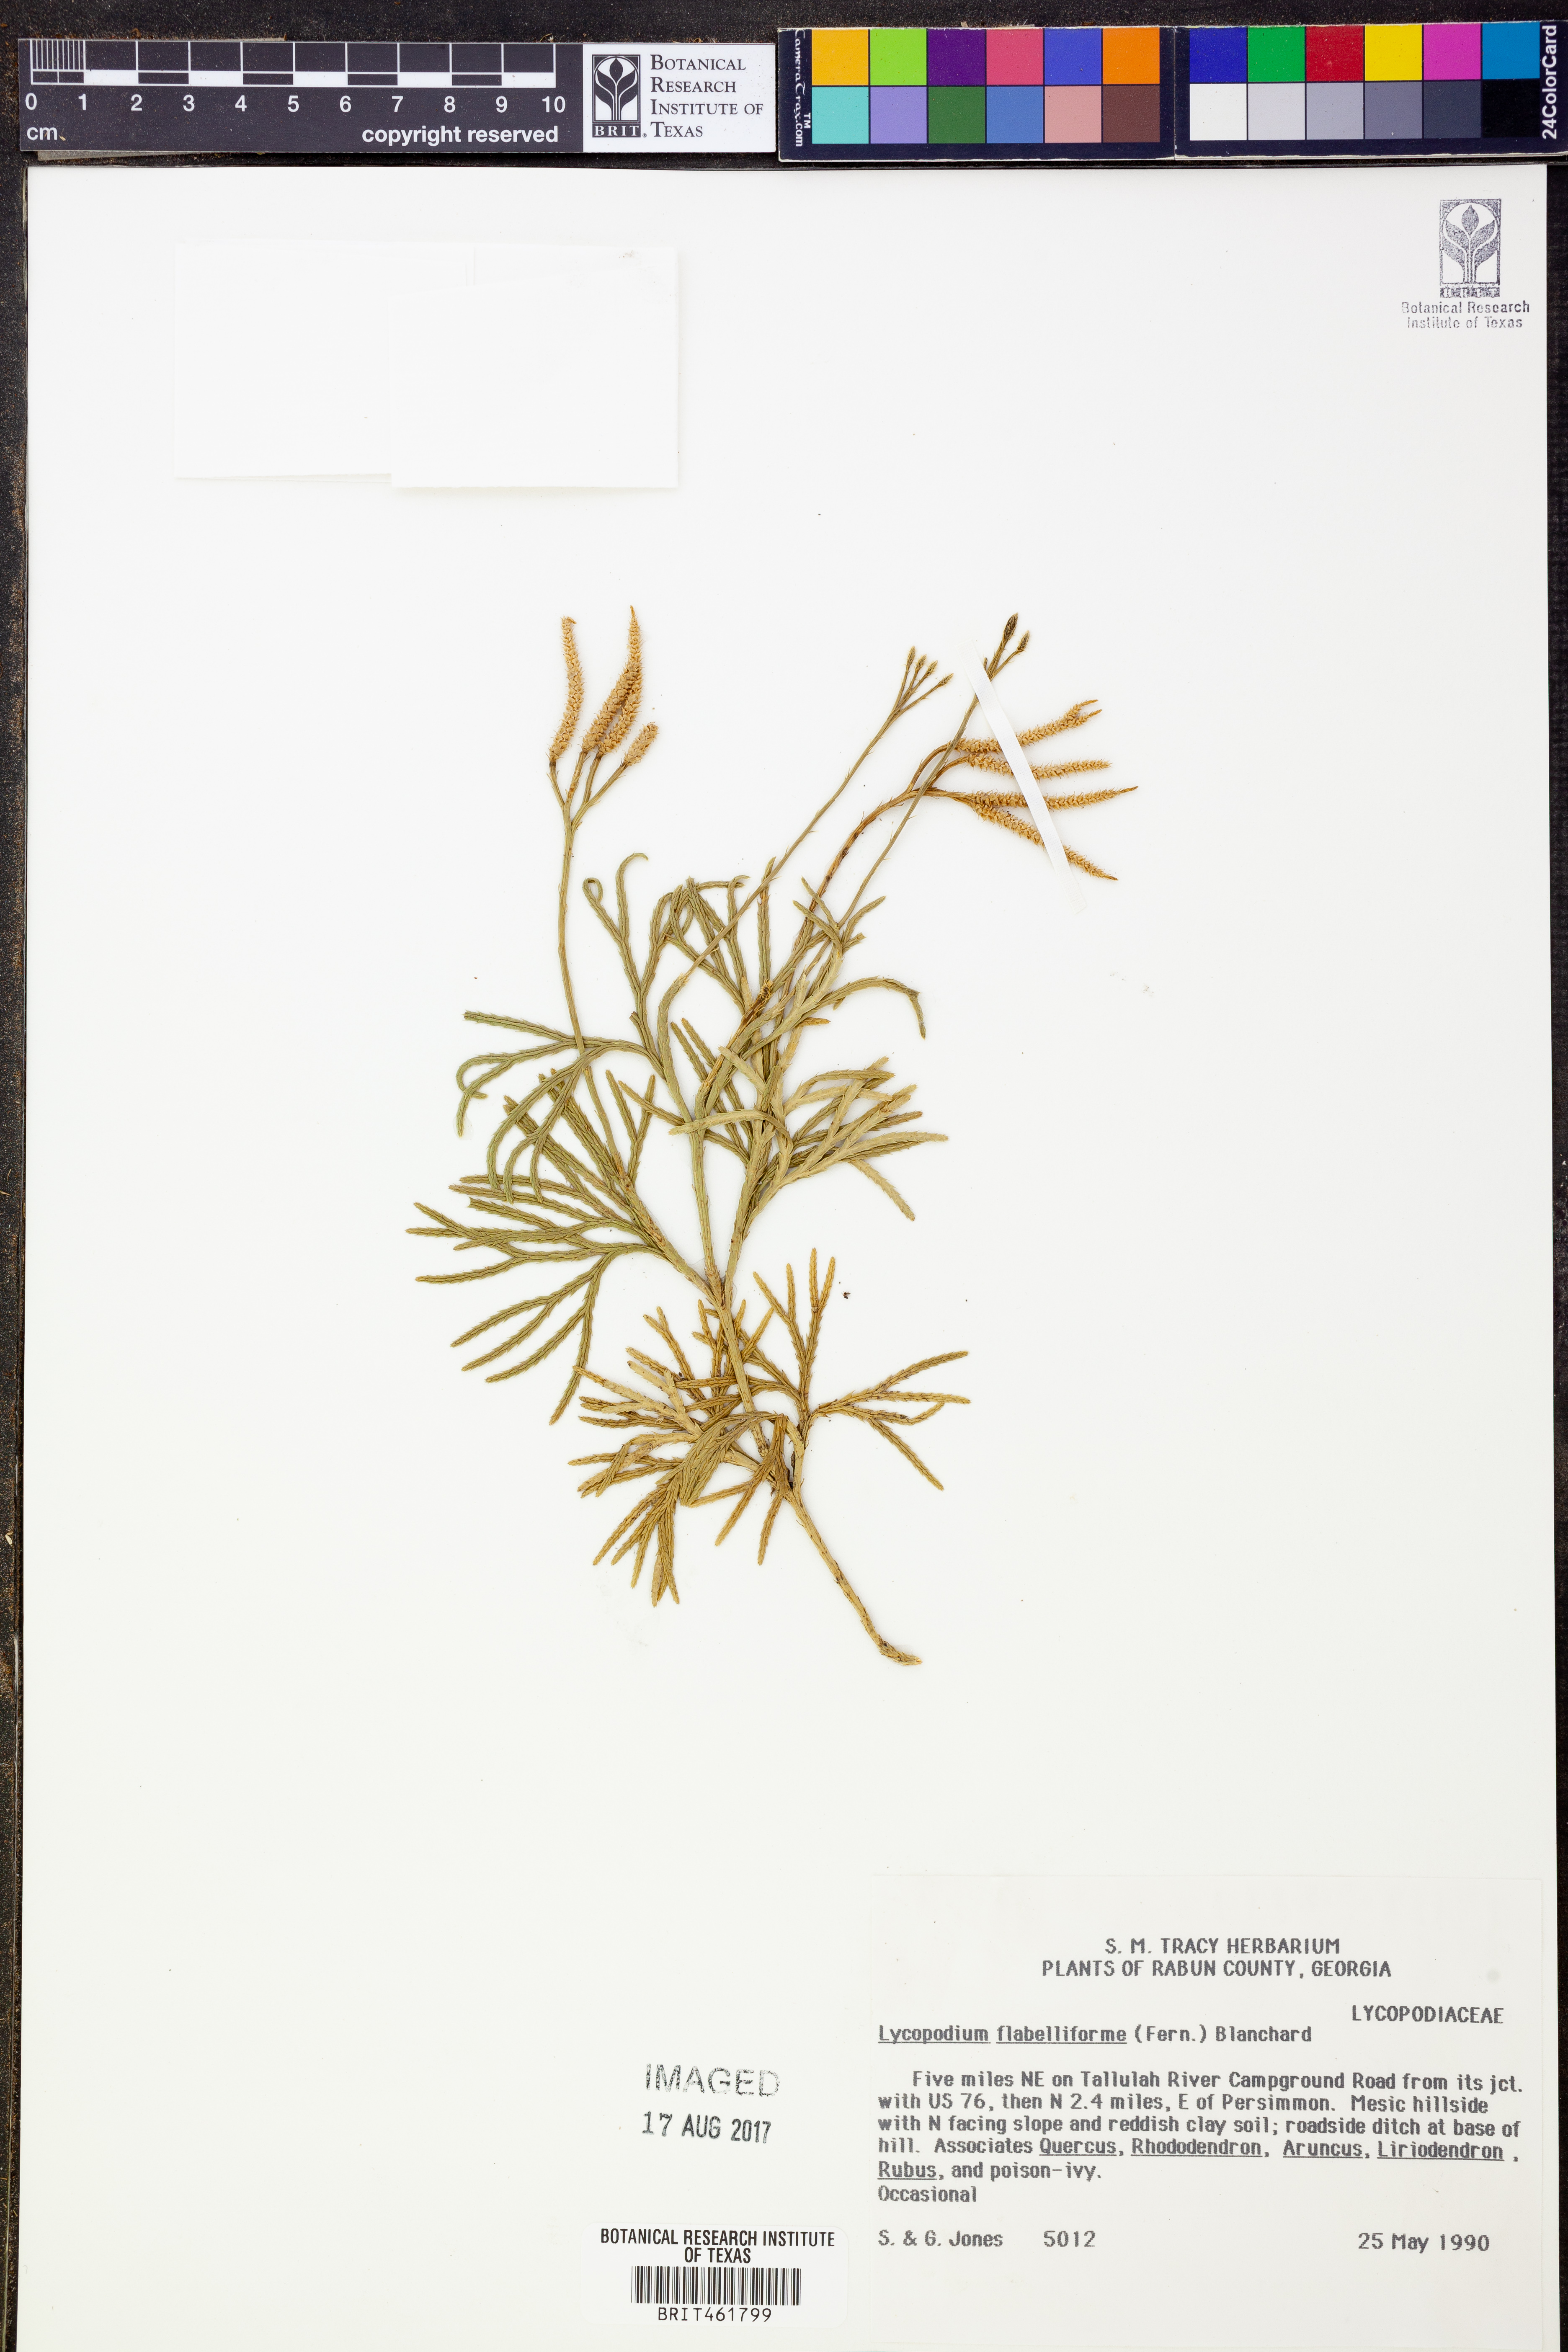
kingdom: Plantae
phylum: Tracheophyta
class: Lycopodiopsida
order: Lycopodiales
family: Lycopodiaceae
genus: Diphasiastrum
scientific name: Diphasiastrum digitatum
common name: Southern running-pine
